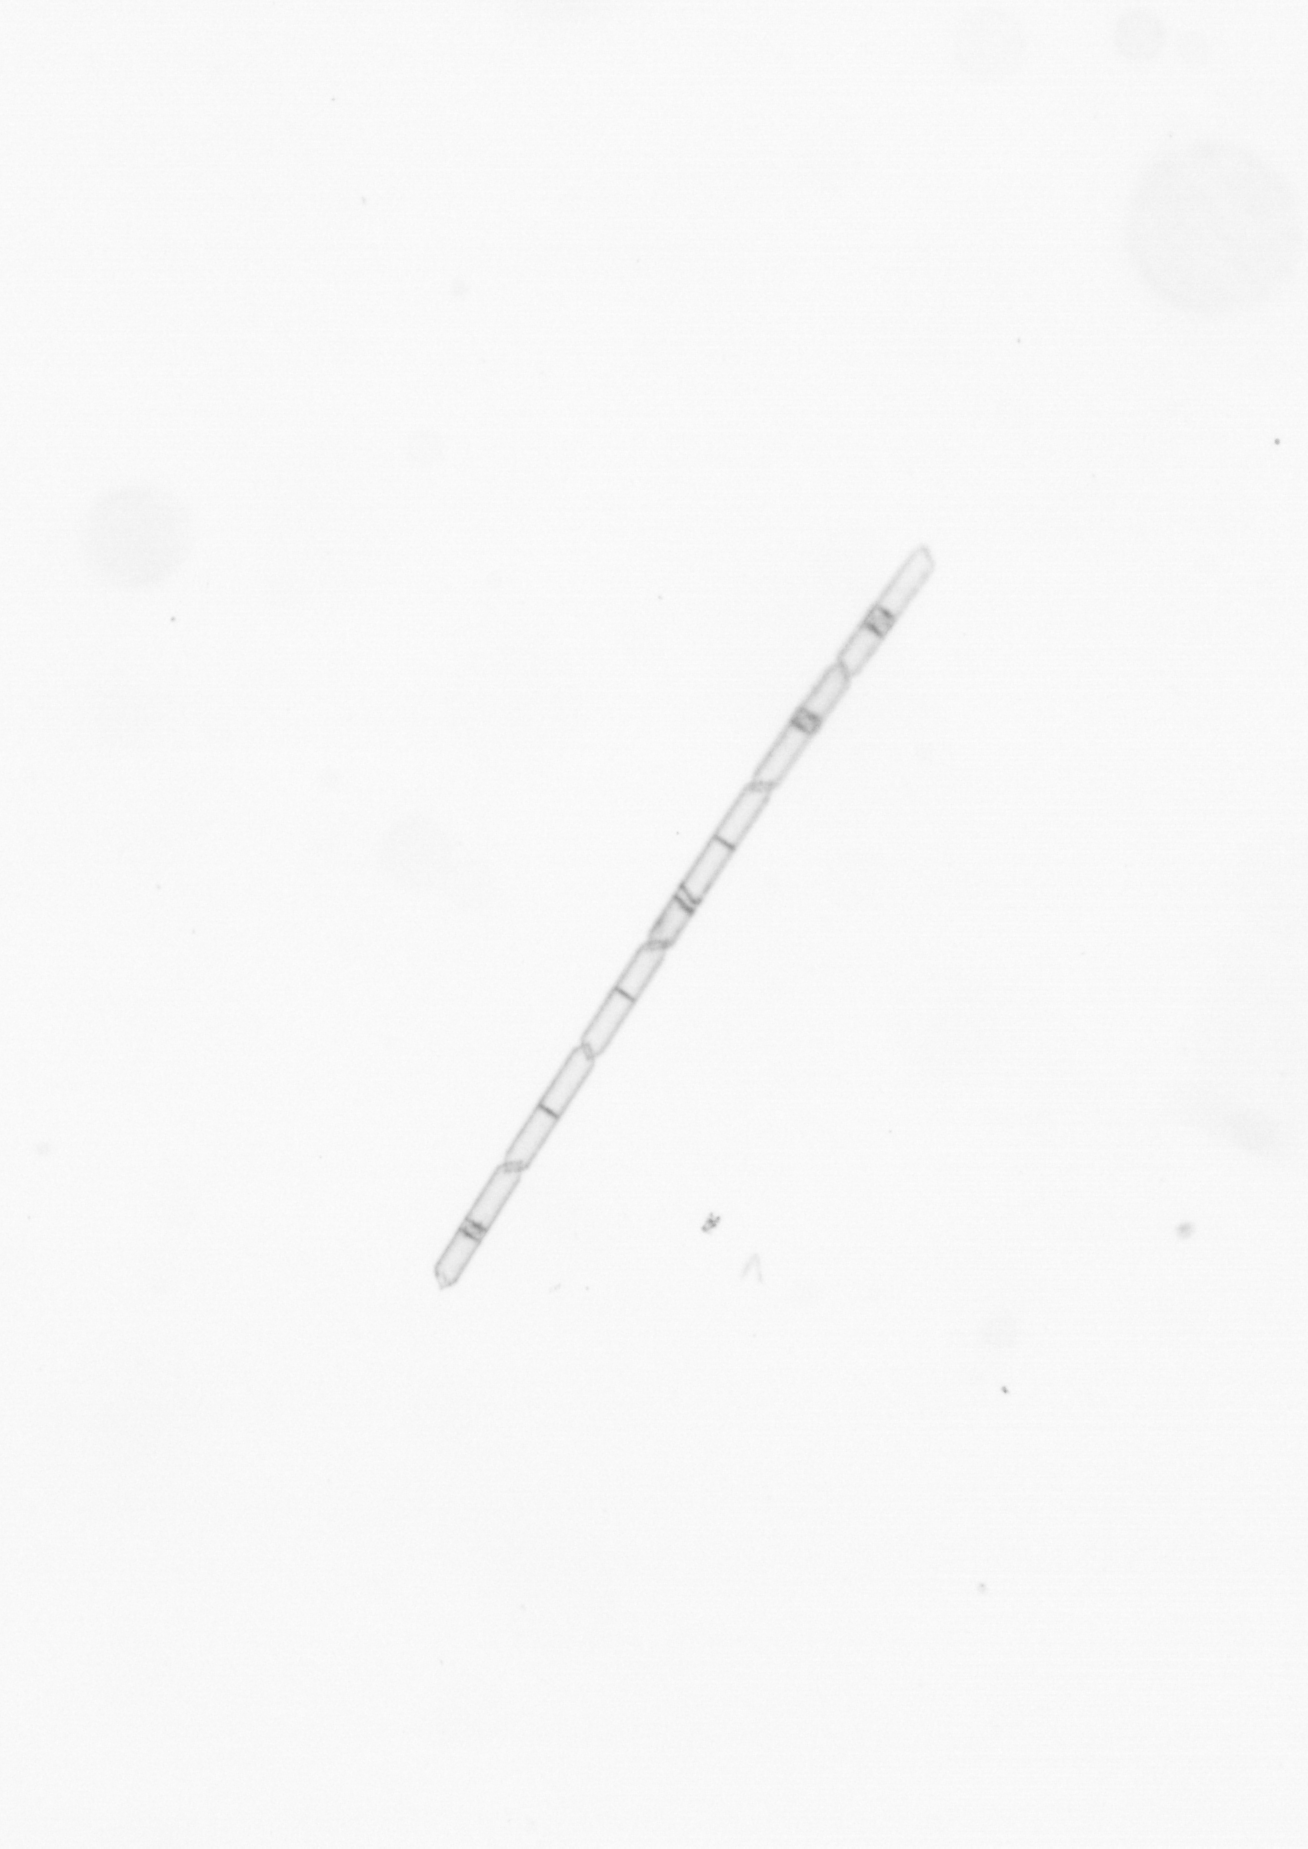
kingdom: Chromista
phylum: Ochrophyta
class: Bacillariophyceae
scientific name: Bacillariophyceae
